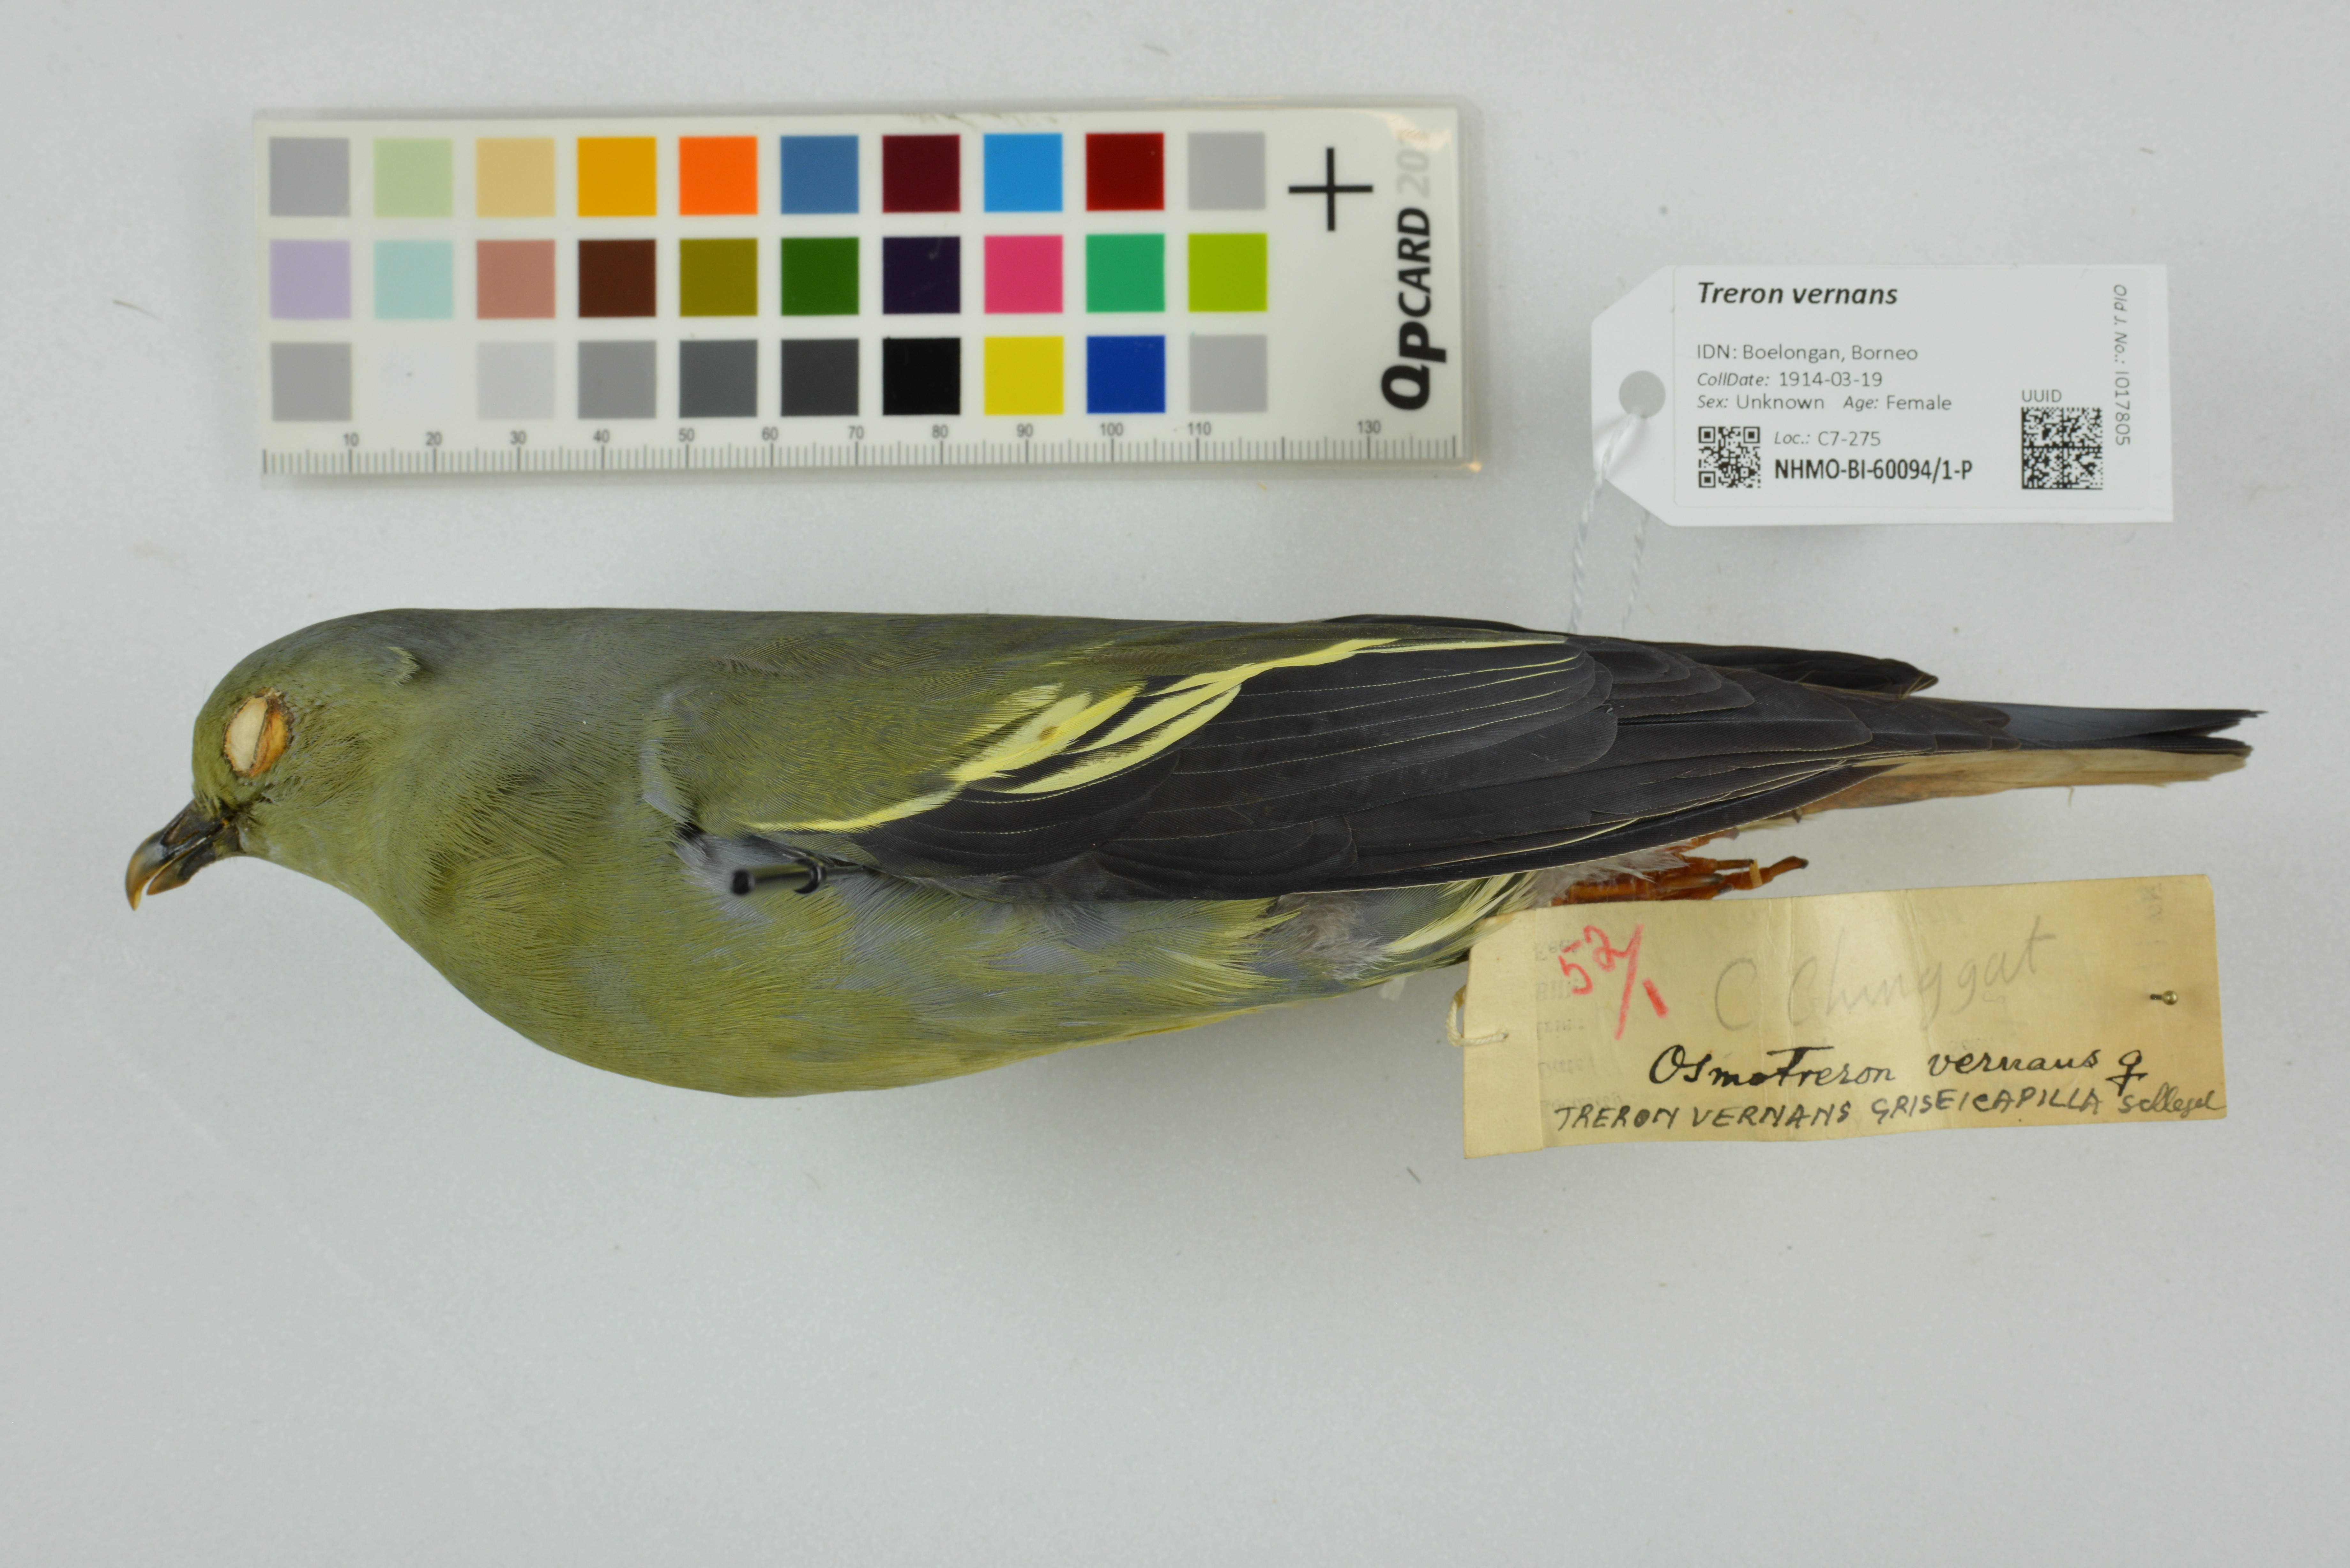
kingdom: Animalia
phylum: Chordata
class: Aves
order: Columbiformes
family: Columbidae
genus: Treron
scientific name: Treron vernans
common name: Pink-necked green pigeon
